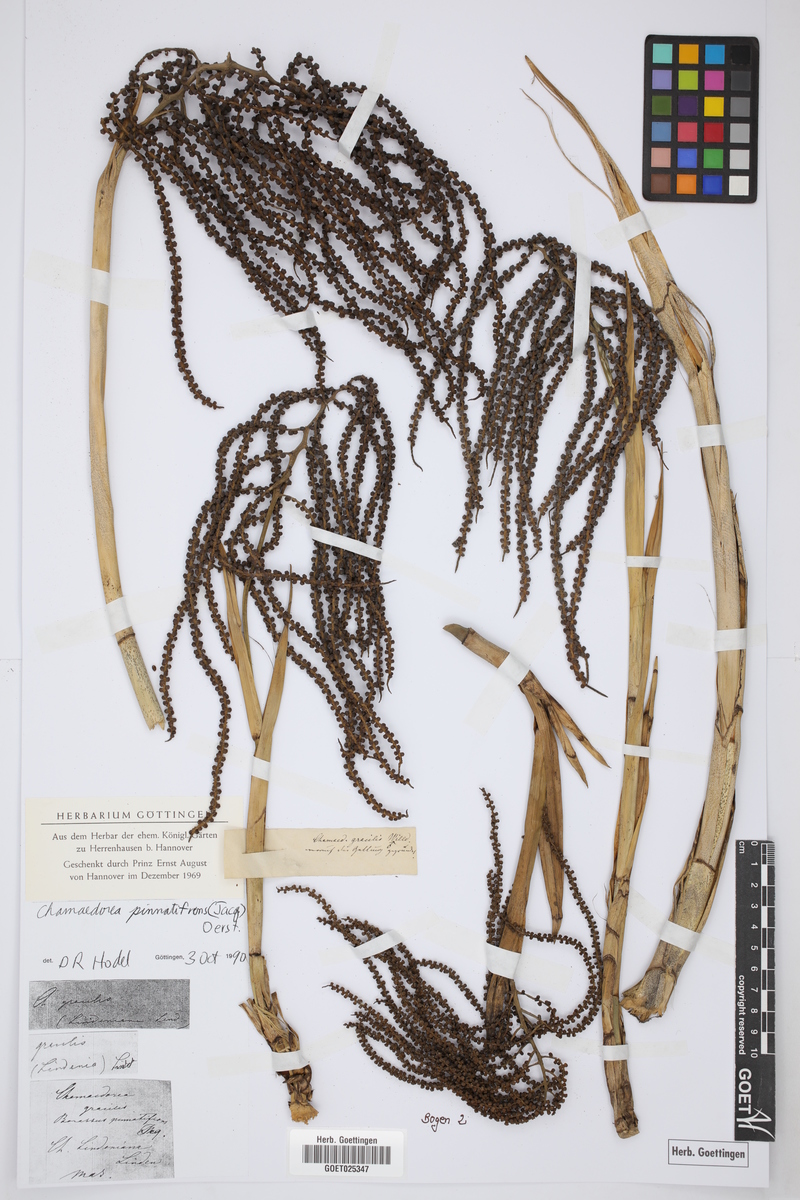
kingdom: Plantae
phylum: Tracheophyta
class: Liliopsida
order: Arecales
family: Arecaceae
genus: Chamaedorea
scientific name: Chamaedorea pinnatifrons
